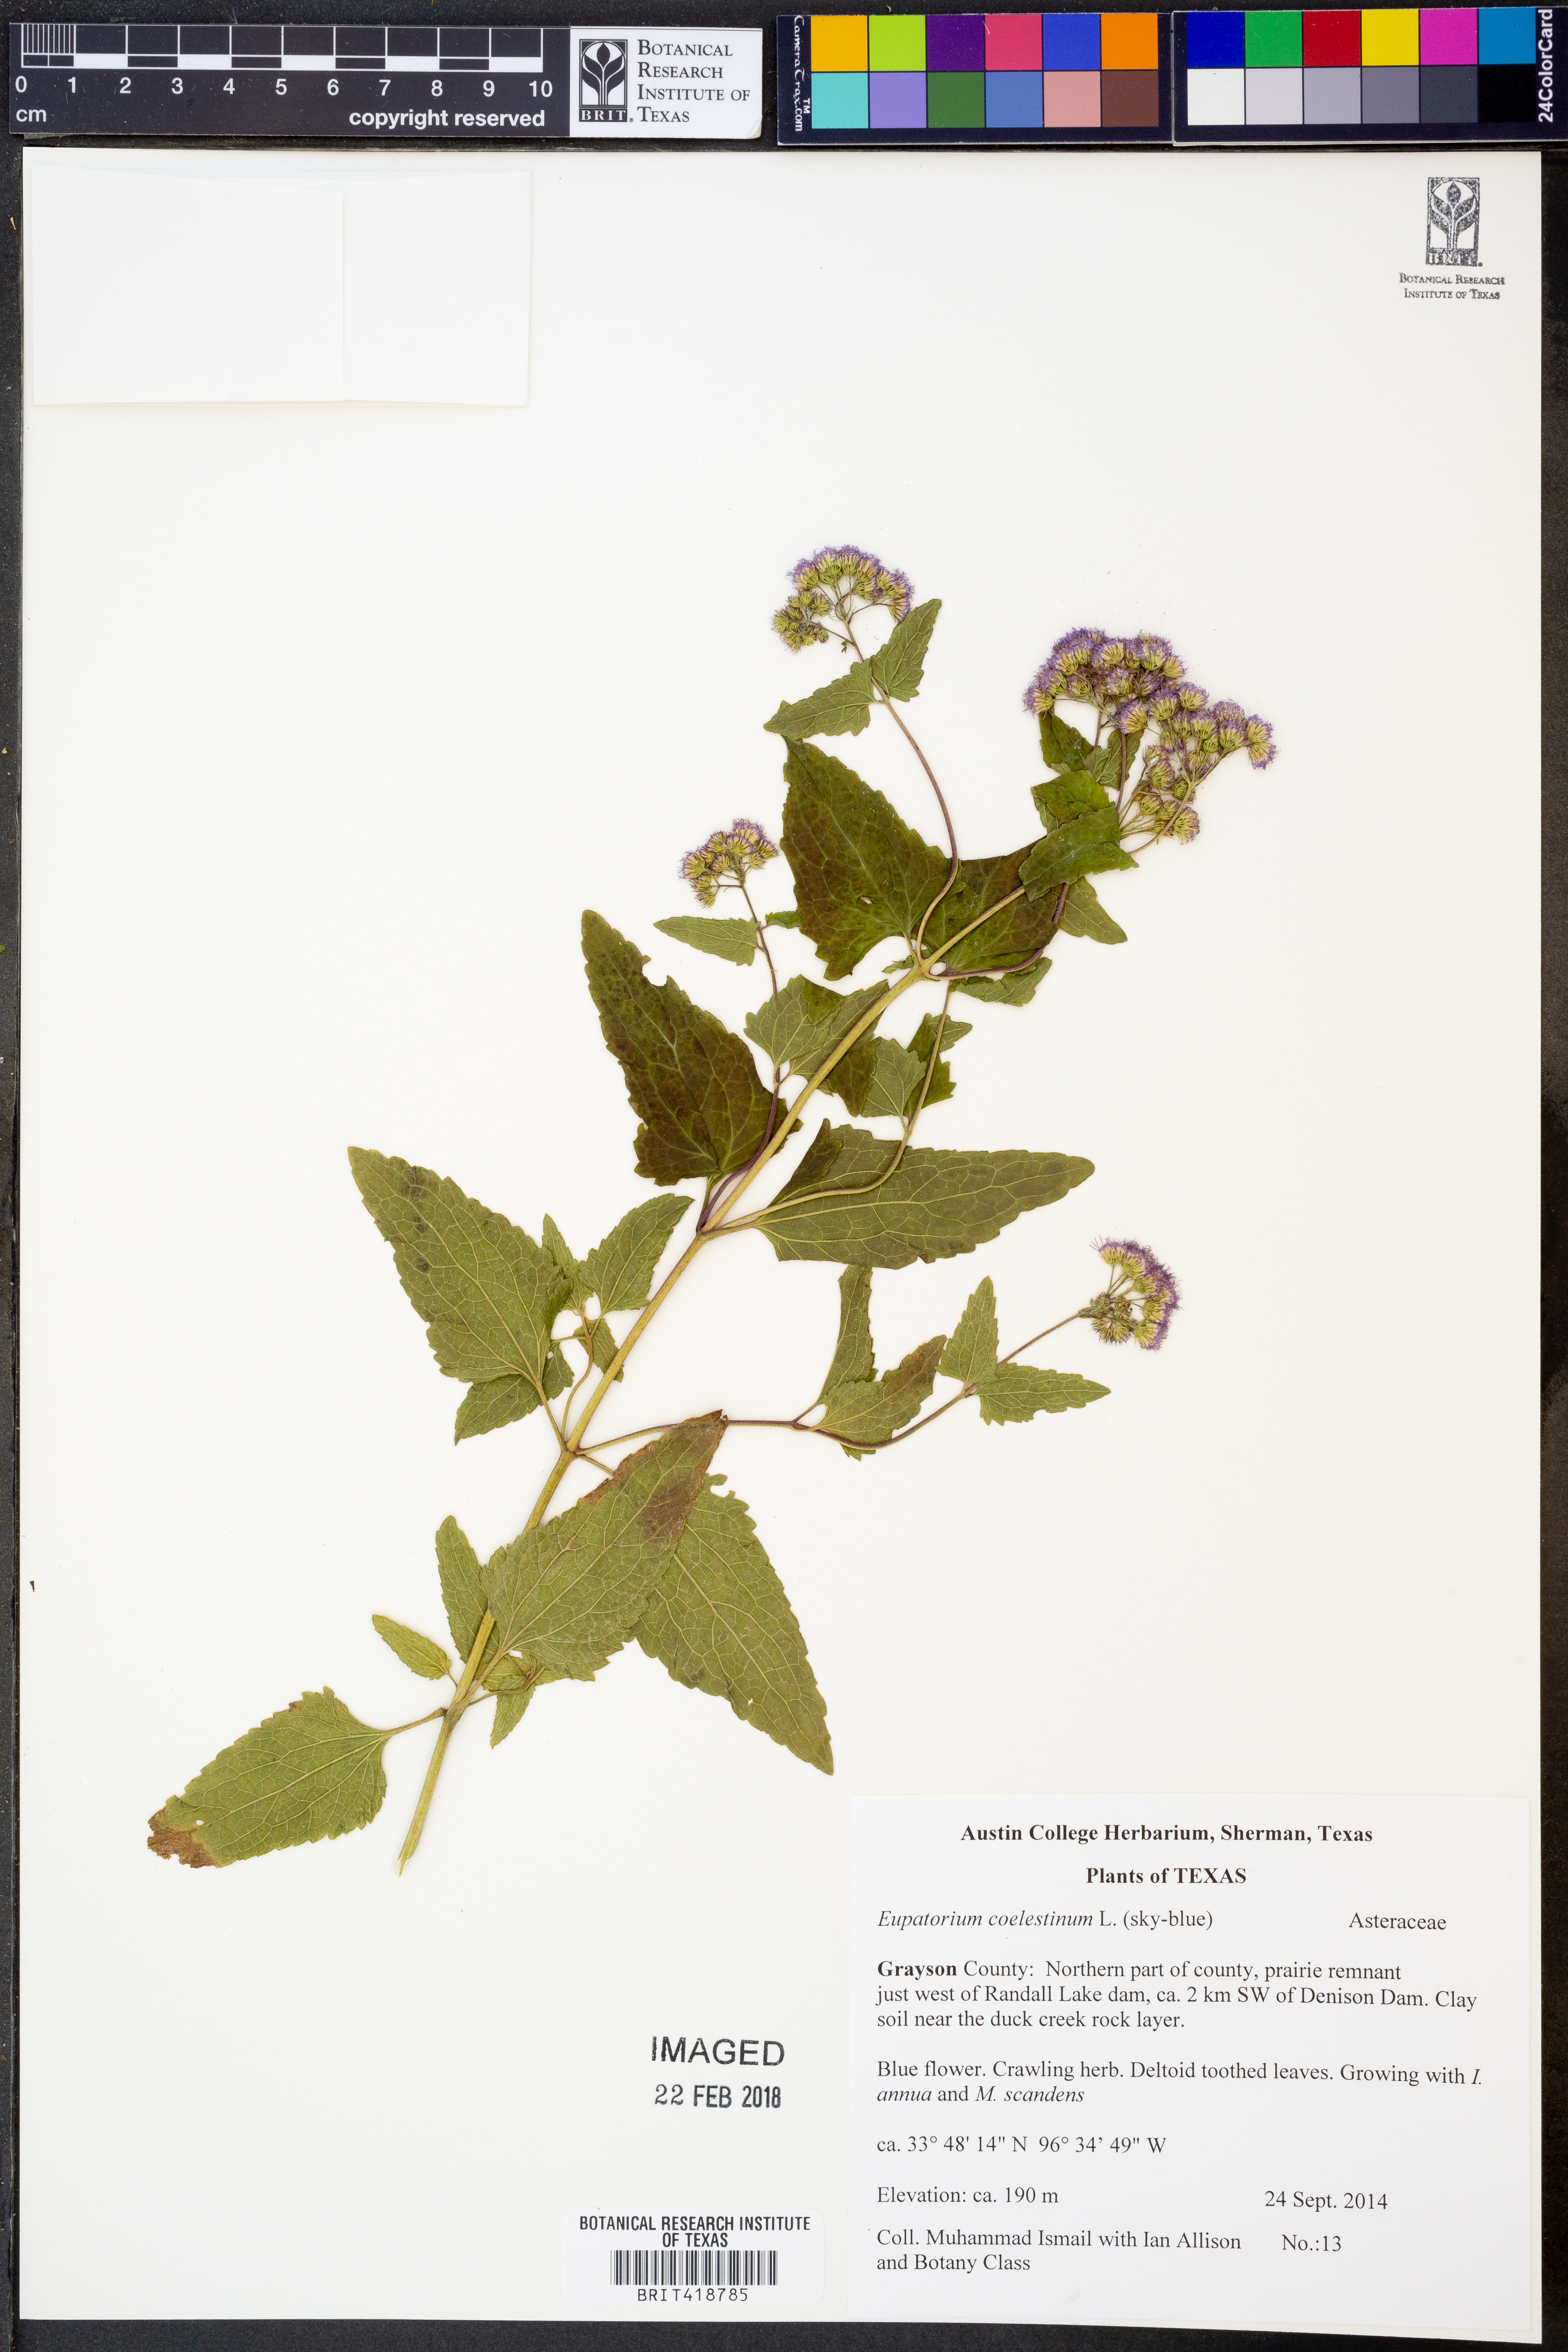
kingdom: Plantae
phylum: Tracheophyta
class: Magnoliopsida
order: Asterales
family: Asteraceae
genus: Conoclinium
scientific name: Conoclinium coelestinum
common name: Blue mistflower
